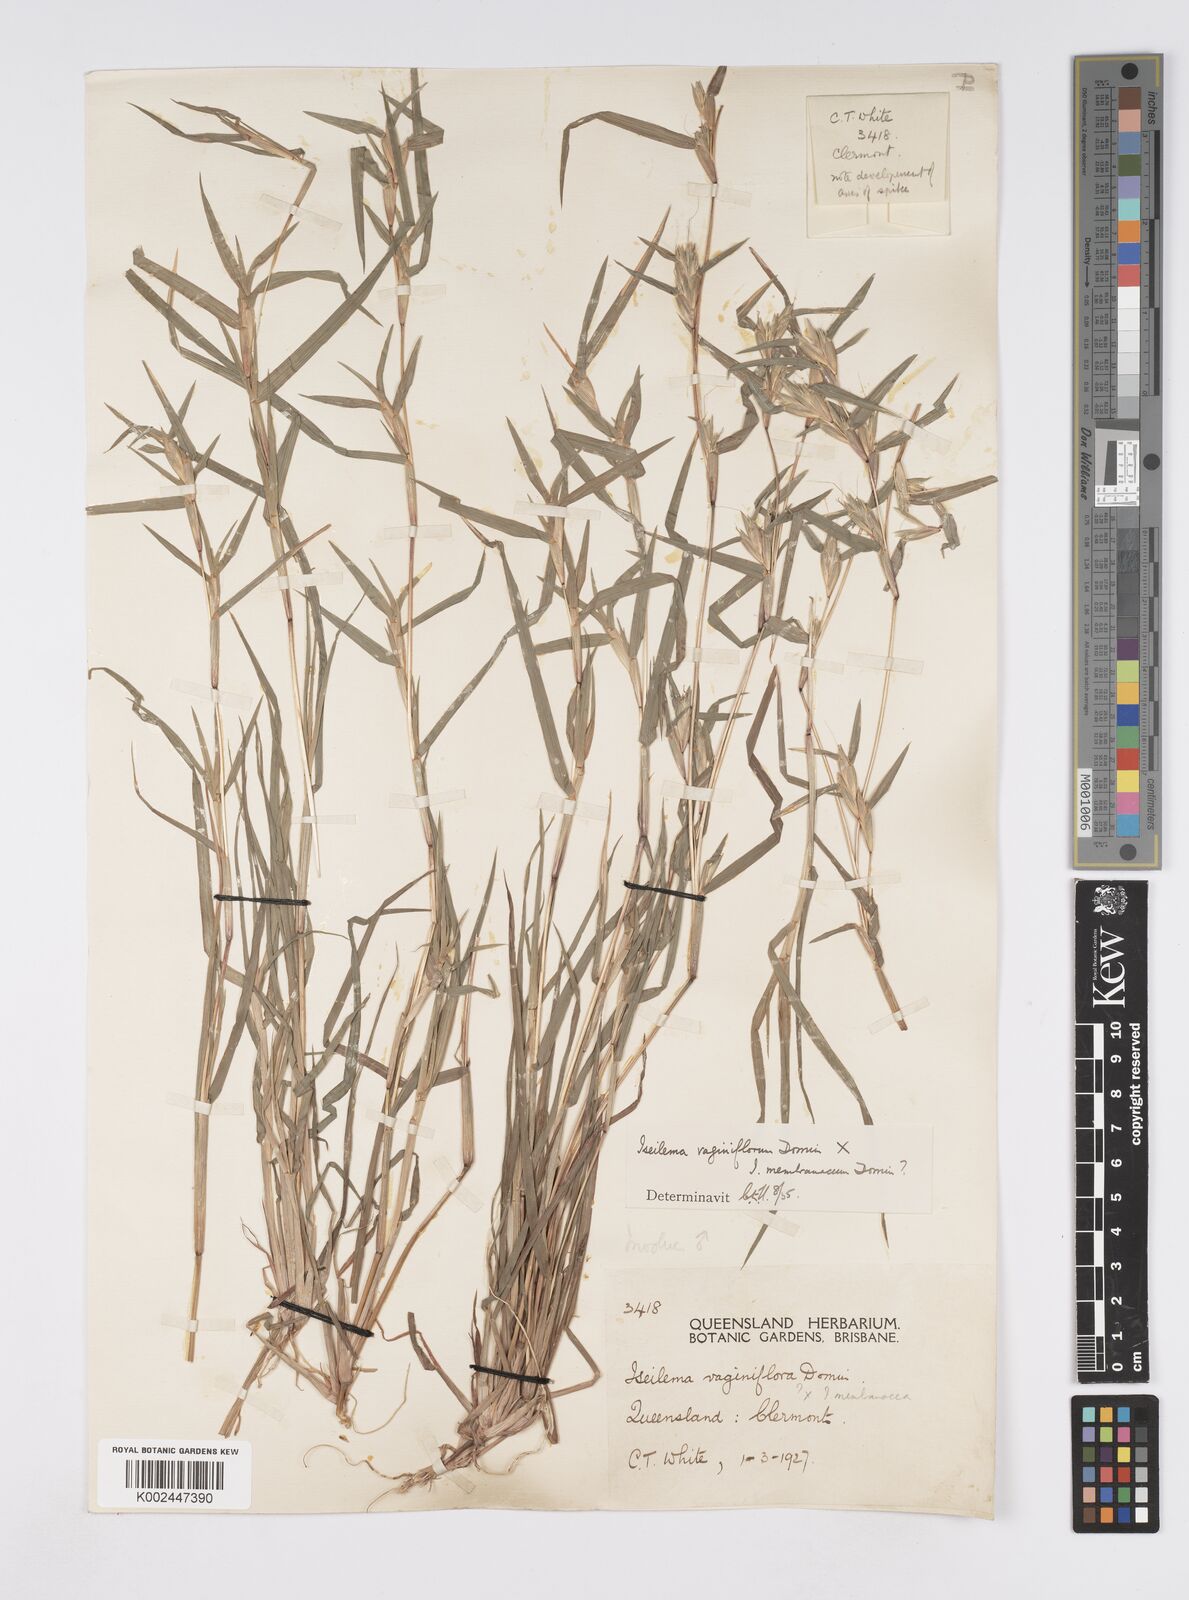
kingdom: Plantae
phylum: Tracheophyta
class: Liliopsida
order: Poales
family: Poaceae
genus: Iseilema
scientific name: Iseilema vaginiflorum
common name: Red flinders grass
